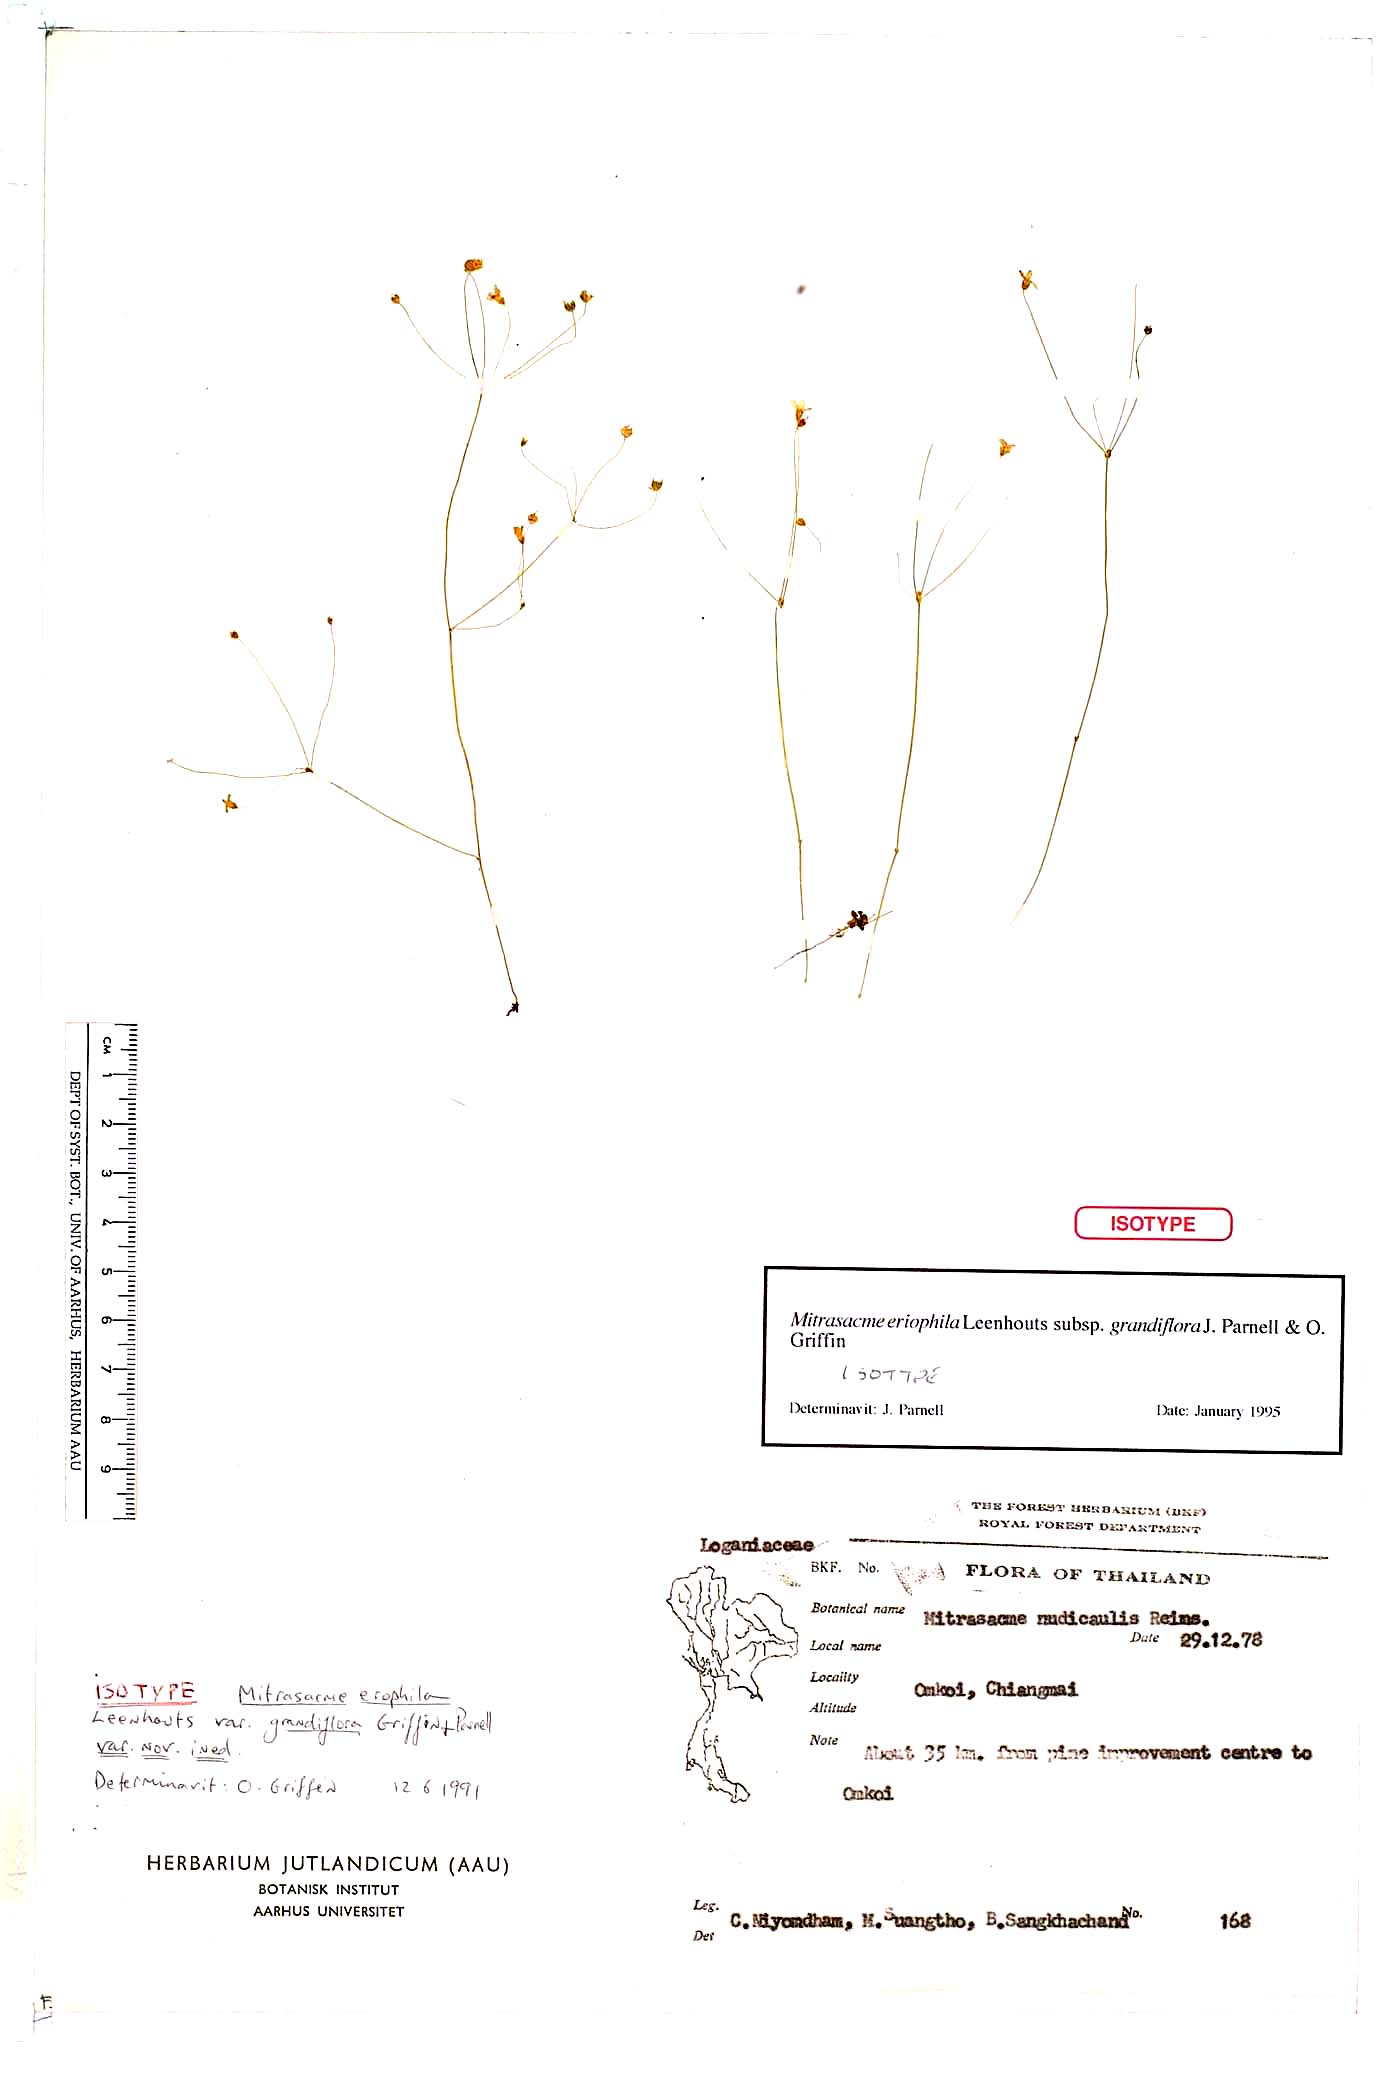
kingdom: Plantae
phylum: Tracheophyta
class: Magnoliopsida
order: Gentianales
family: Loganiaceae
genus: Mitrasacme
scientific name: Mitrasacme
